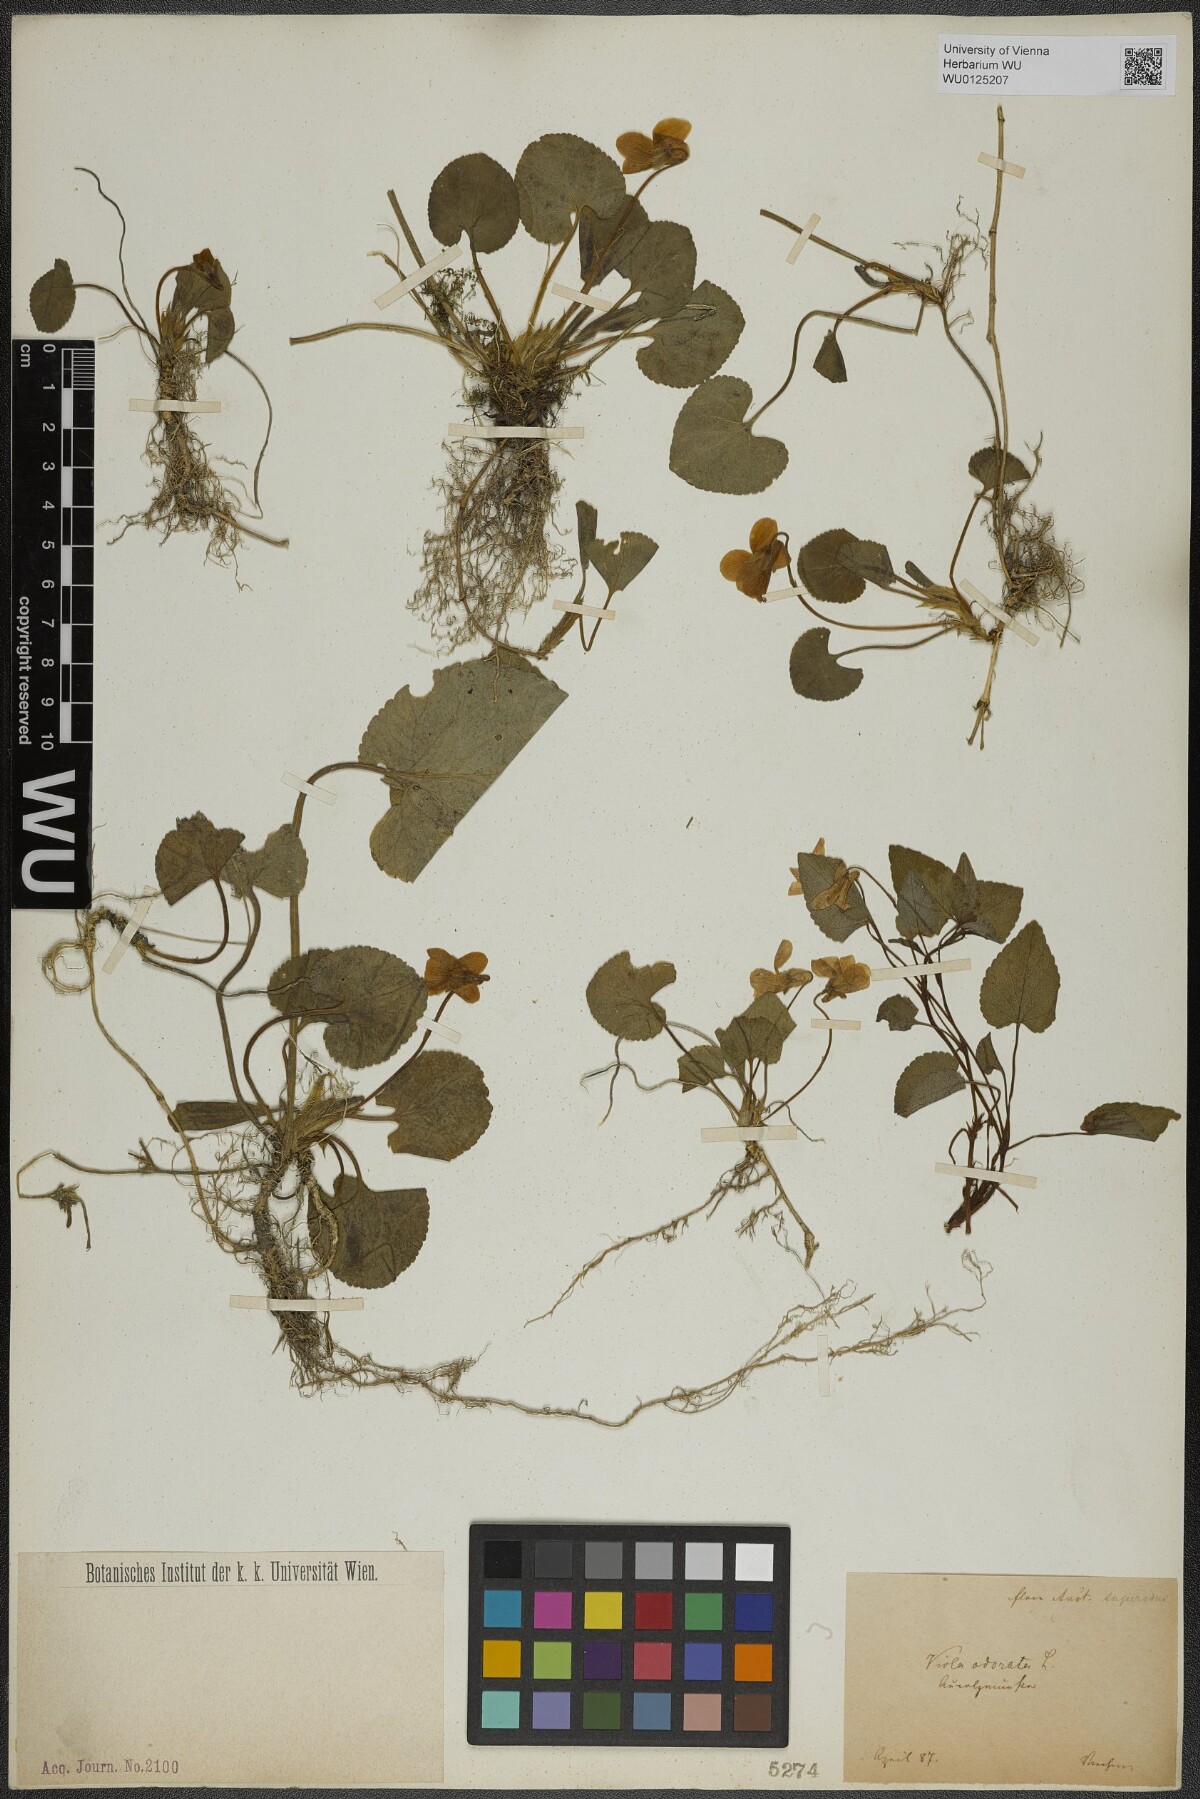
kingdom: Plantae
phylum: Tracheophyta
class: Magnoliopsida
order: Malpighiales
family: Violaceae
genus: Viola
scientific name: Viola odorata
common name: Sweet violet
